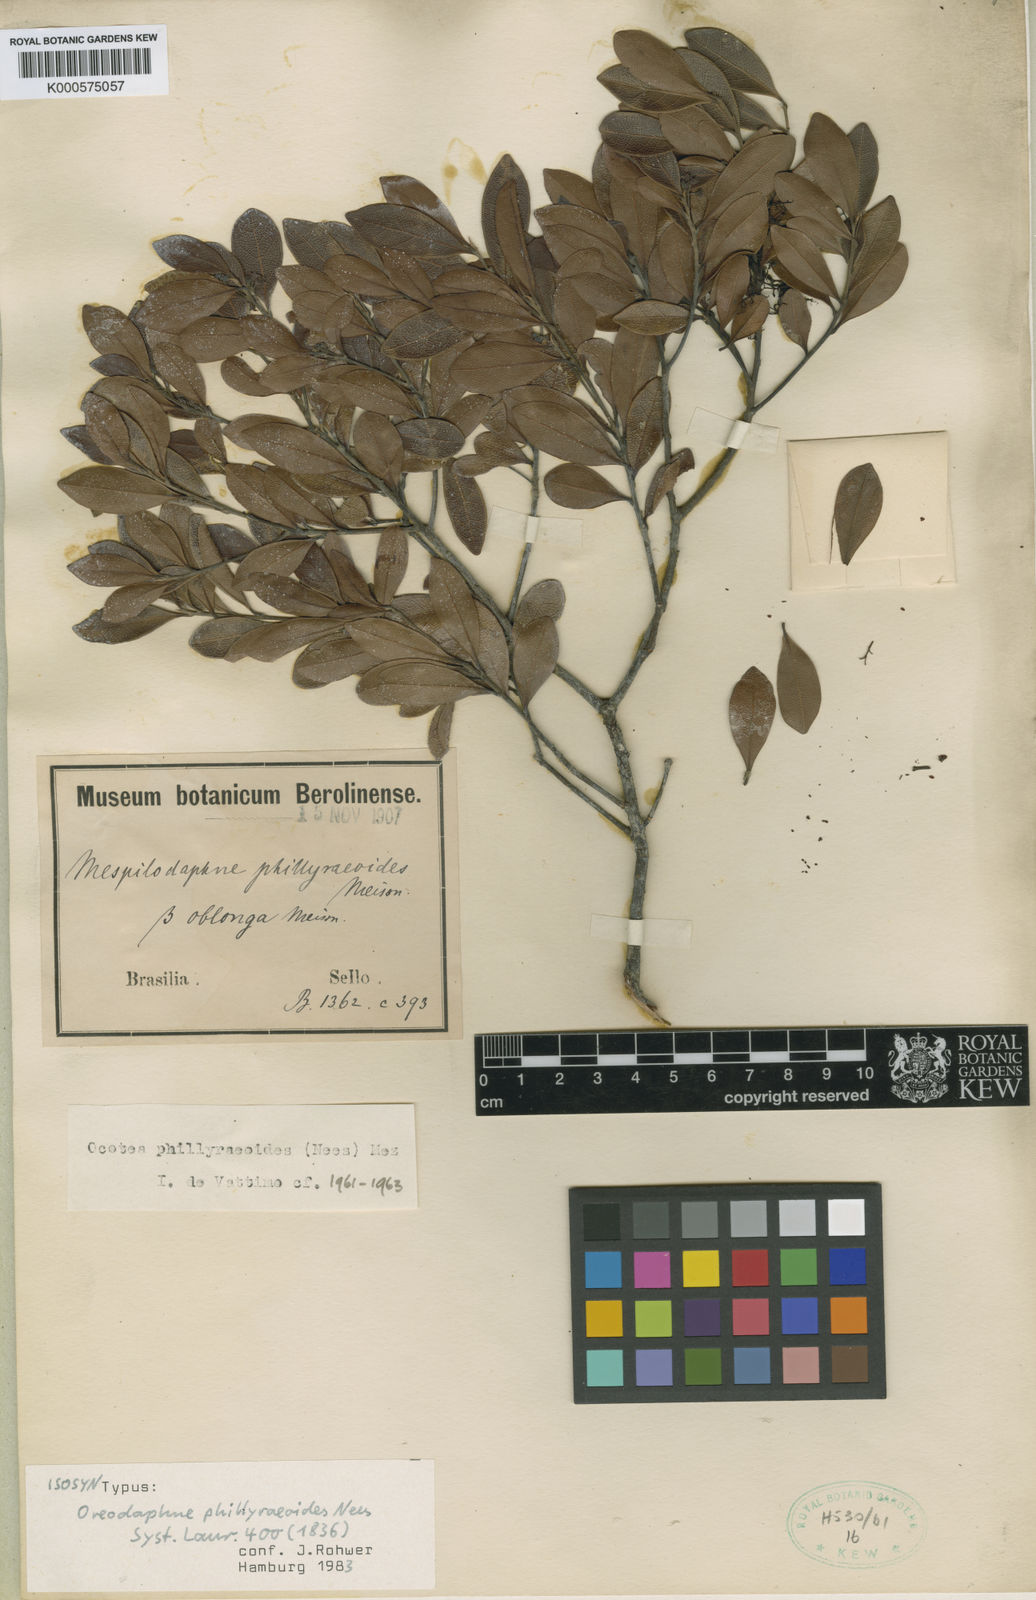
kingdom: Plantae
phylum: Tracheophyta
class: Magnoliopsida
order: Laurales
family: Lauraceae
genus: Ocotea
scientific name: Ocotea
